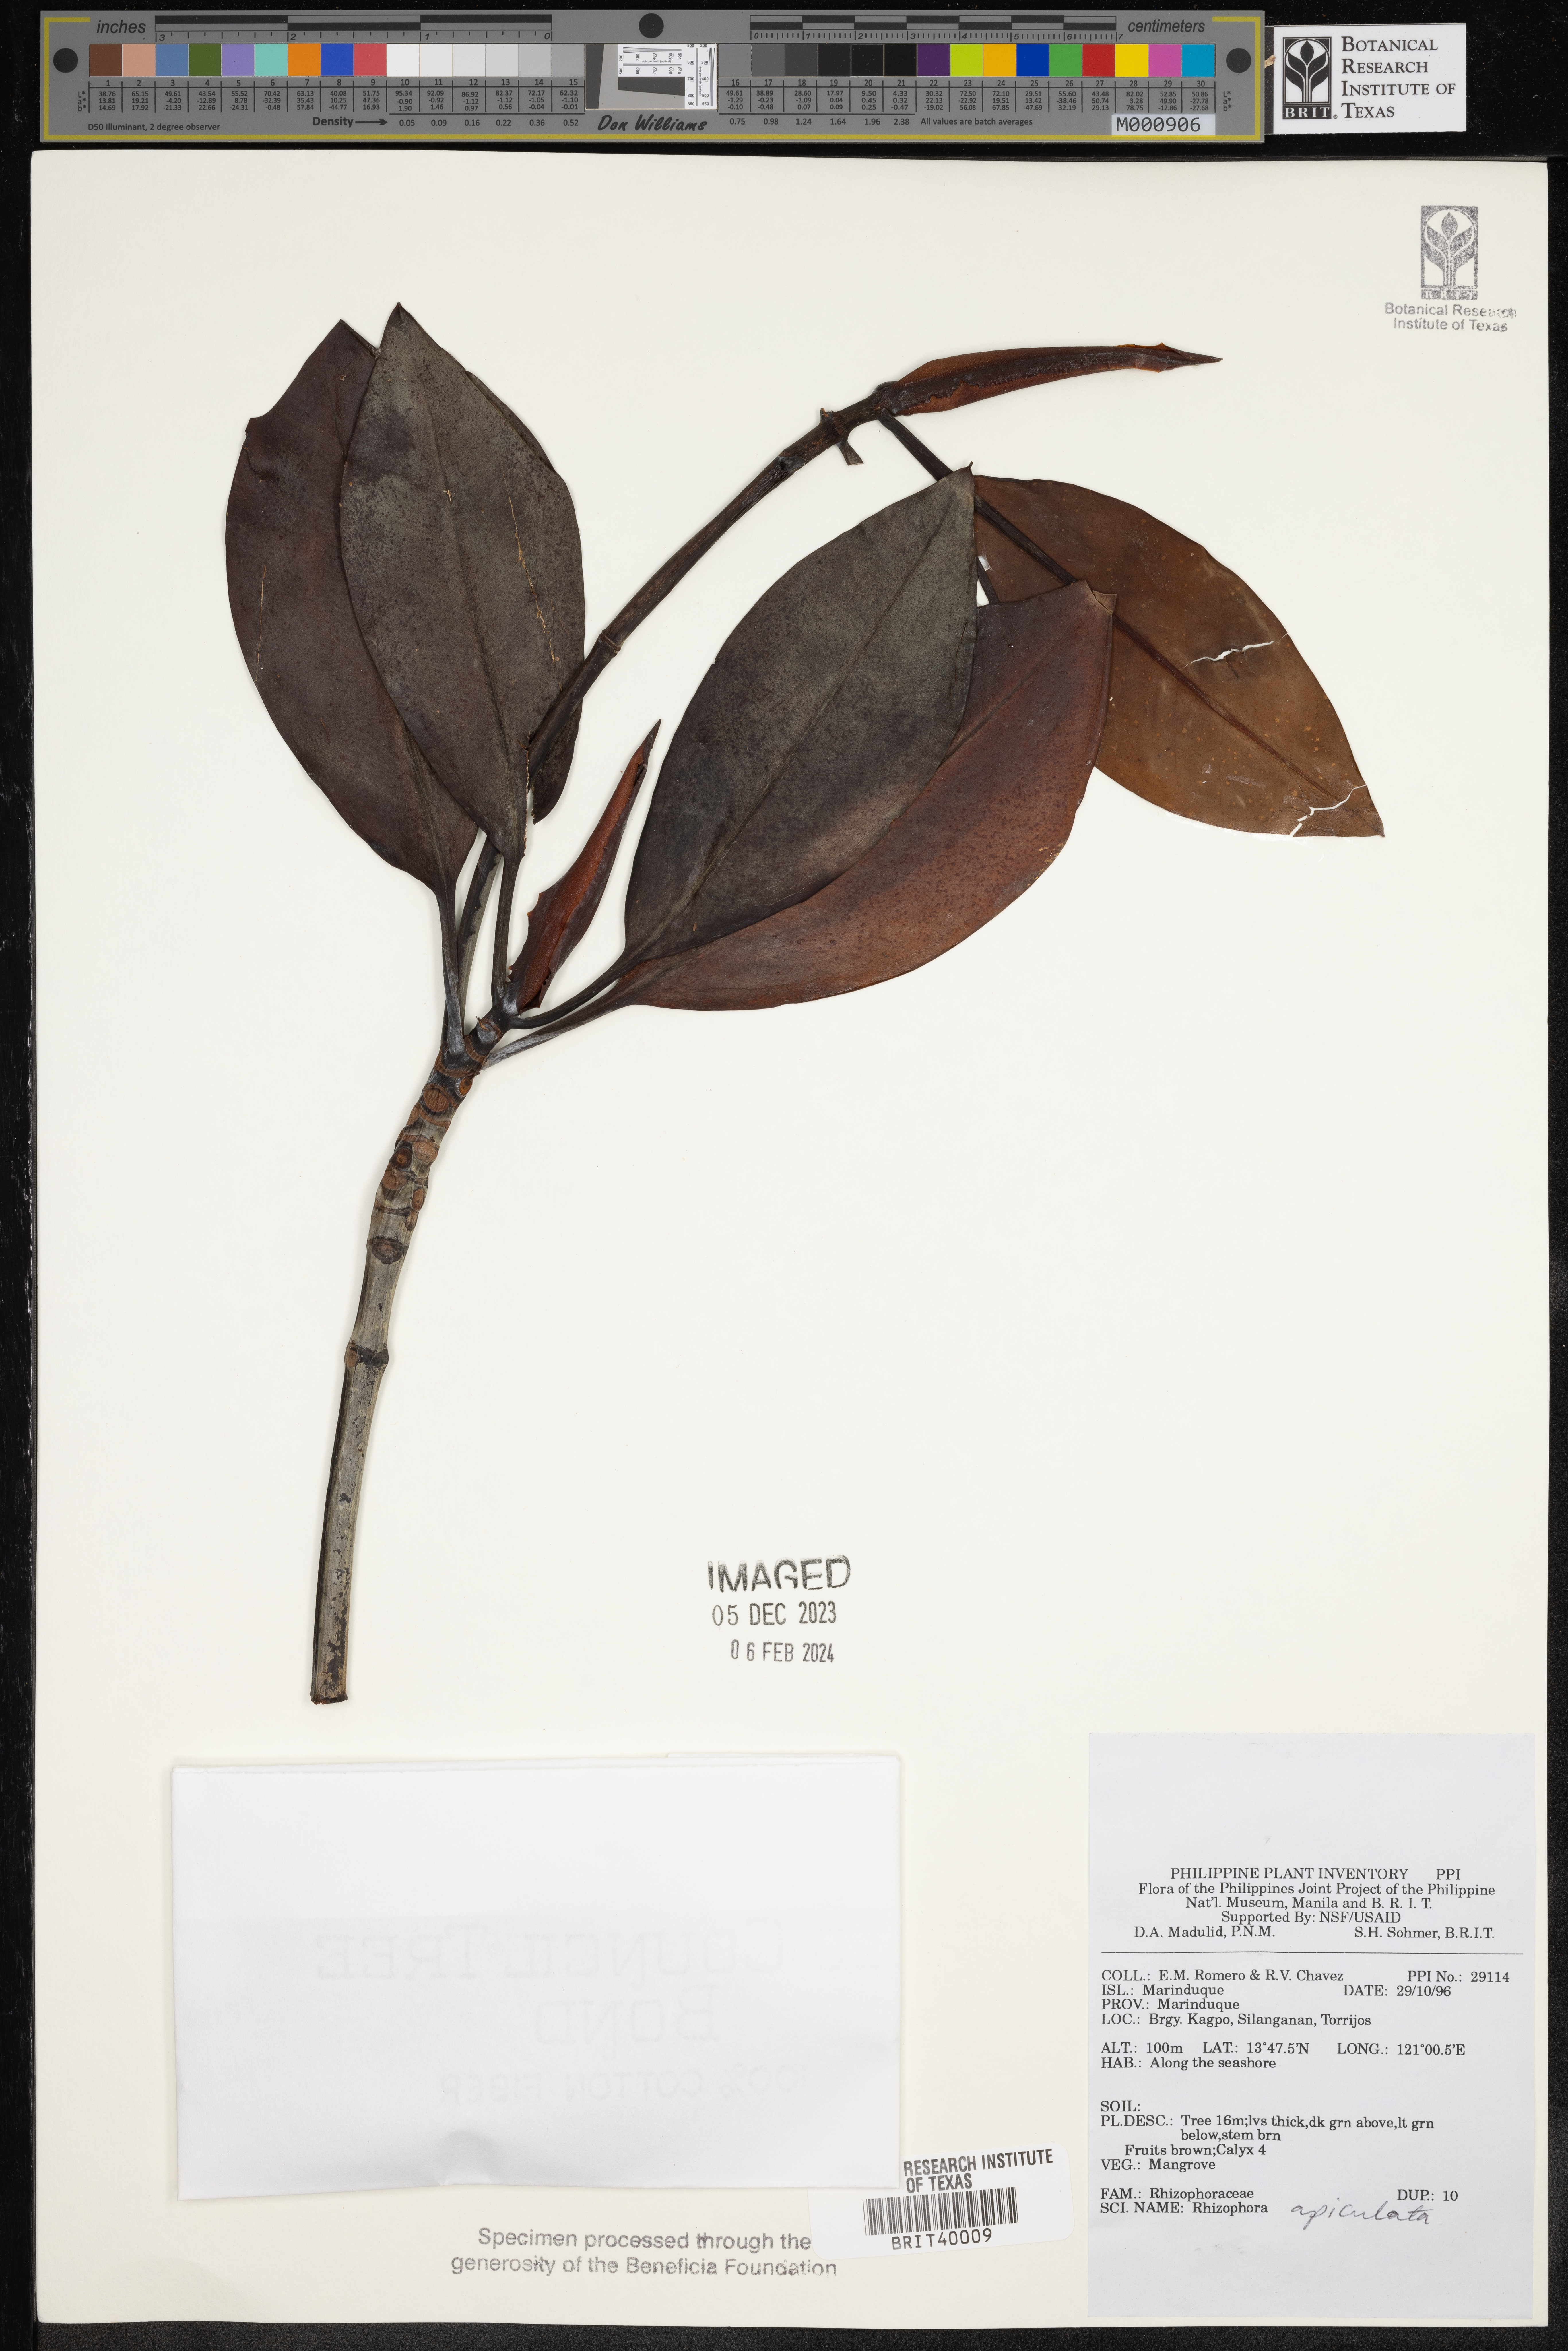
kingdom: Plantae
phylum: Tracheophyta
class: Magnoliopsida
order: Malpighiales
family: Rhizophoraceae
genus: Rhizophora
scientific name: Rhizophora apiculata
